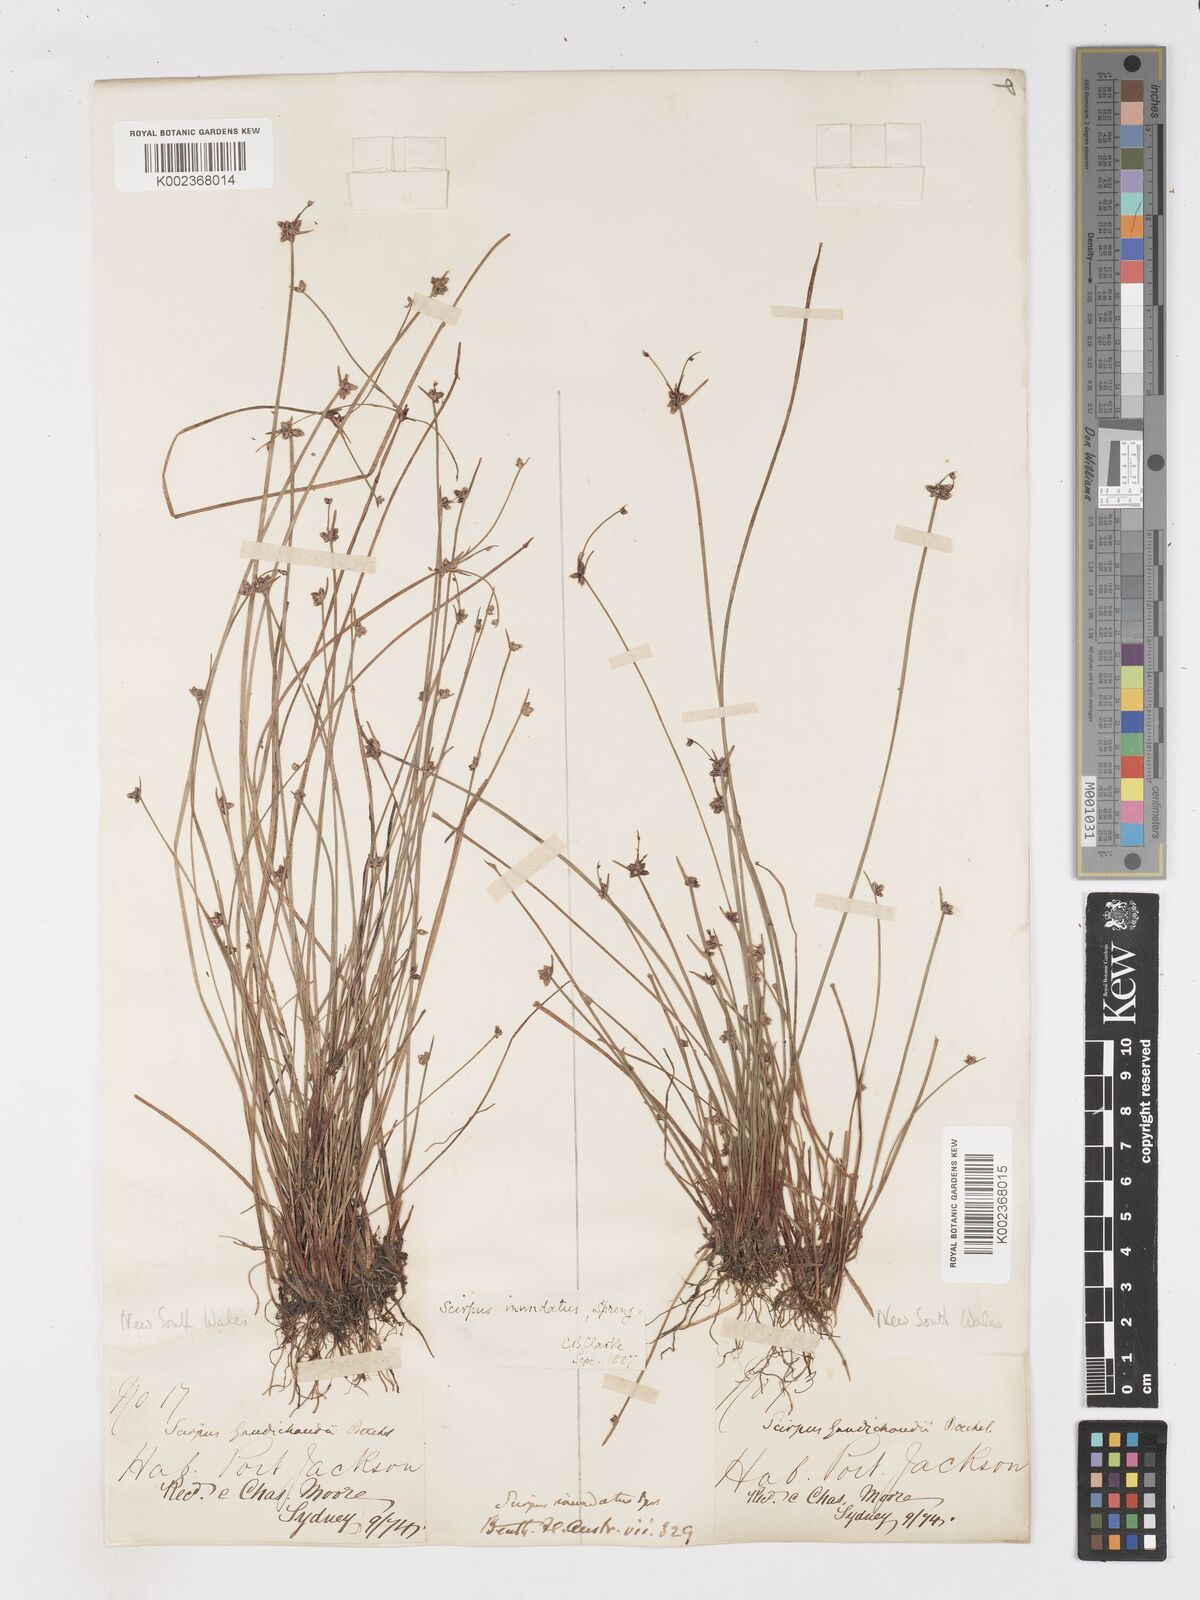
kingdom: Plantae
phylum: Tracheophyta
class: Liliopsida
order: Poales
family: Cyperaceae
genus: Isolepis
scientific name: Isolepis inundata
